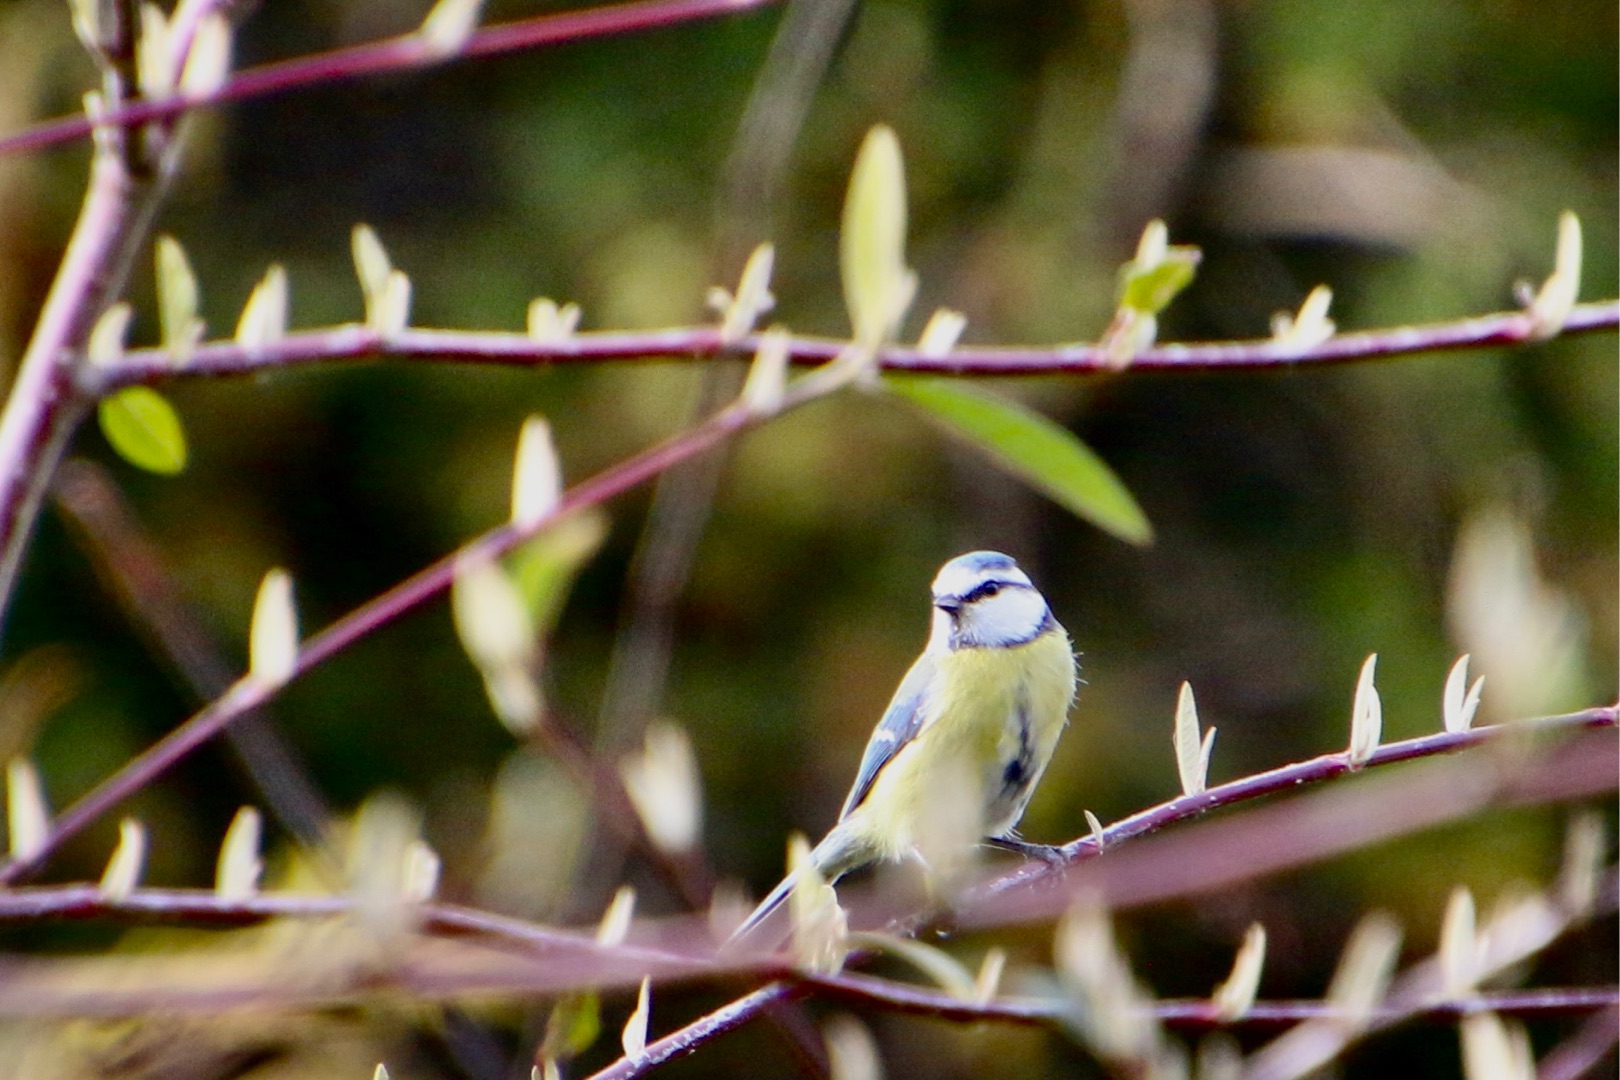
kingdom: Animalia
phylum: Chordata
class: Aves
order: Passeriformes
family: Paridae
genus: Cyanistes
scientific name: Cyanistes caeruleus
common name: Blåmejse
